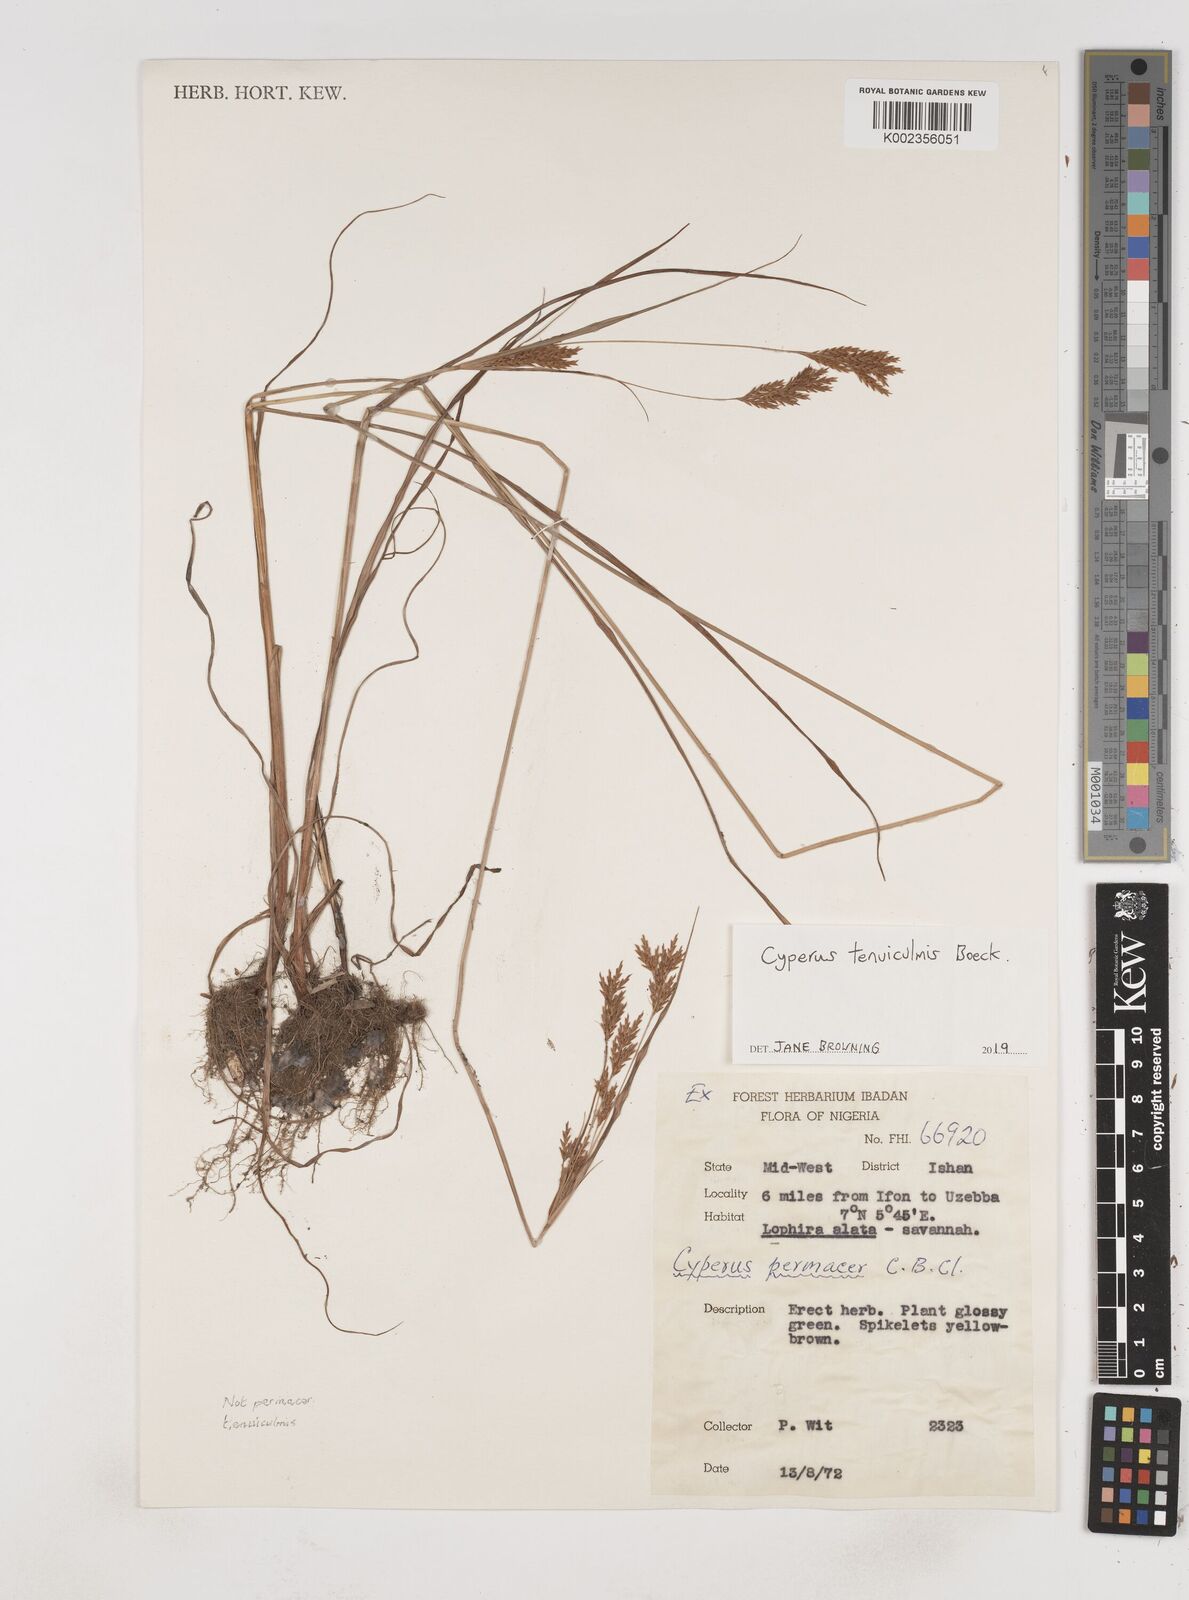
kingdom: Plantae
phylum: Tracheophyta
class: Liliopsida
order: Poales
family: Cyperaceae
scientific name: Cyperaceae
